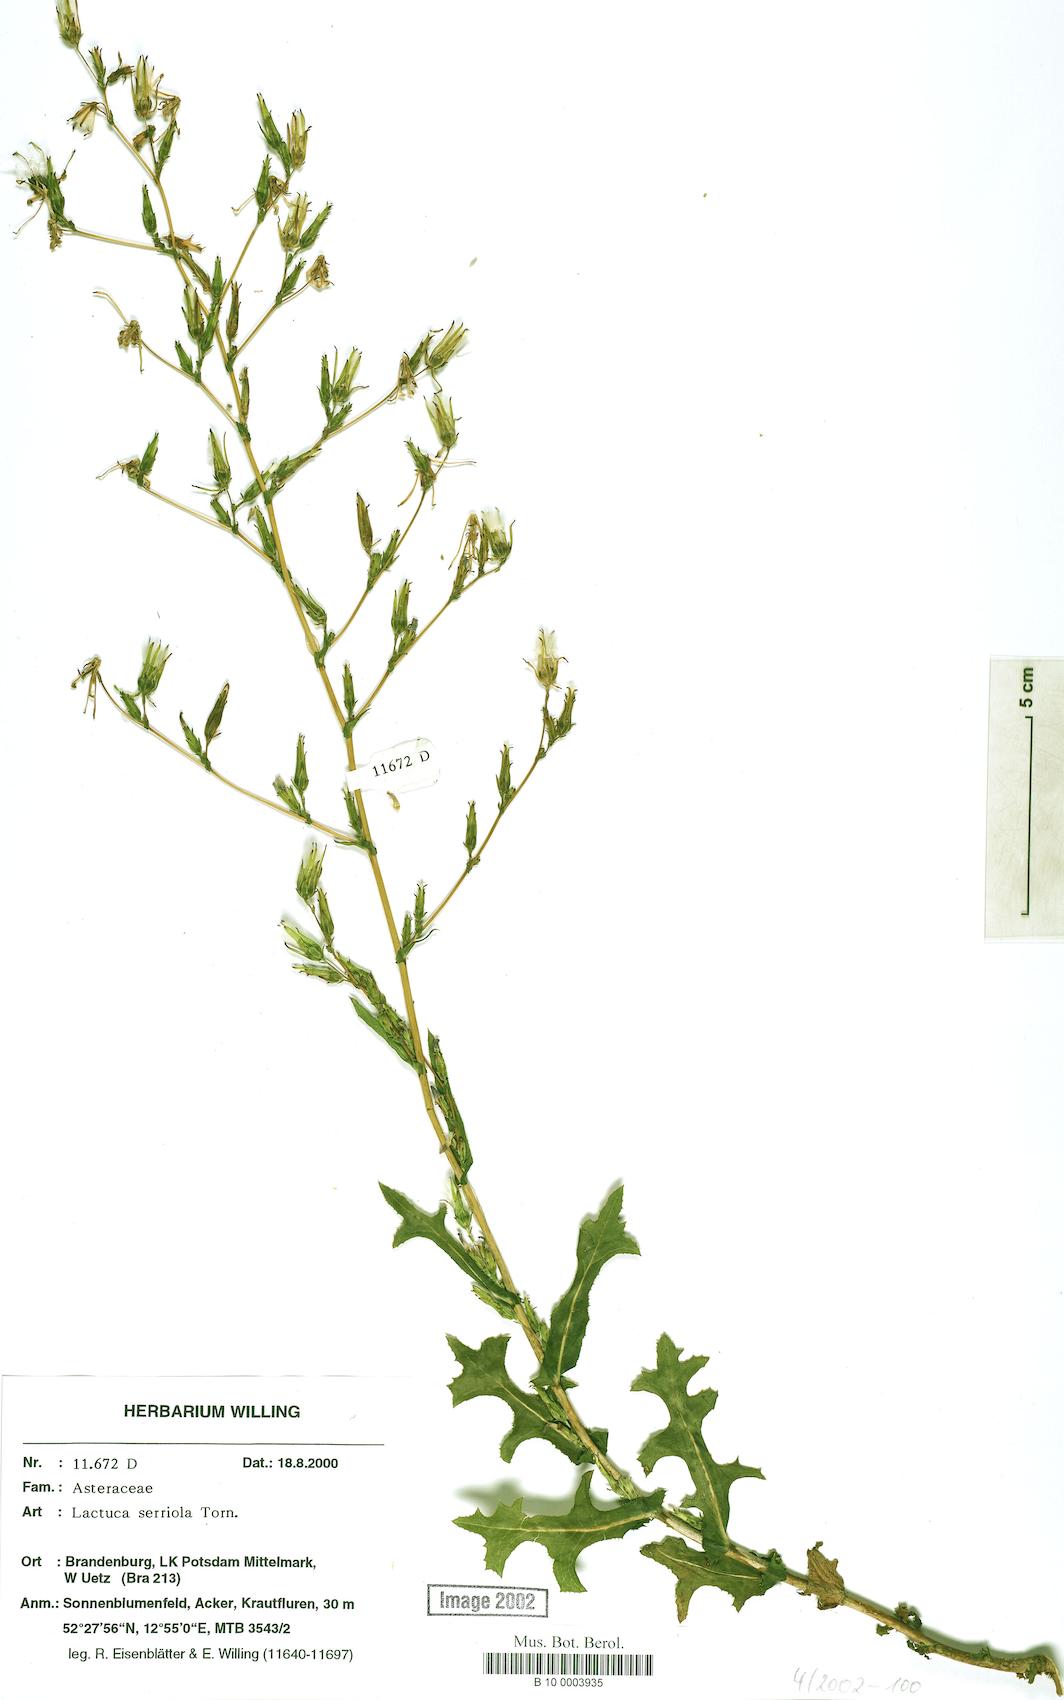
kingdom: Plantae
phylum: Tracheophyta
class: Magnoliopsida
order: Asterales
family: Asteraceae
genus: Lactuca
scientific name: Lactuca serriola
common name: Prickly lettuce
